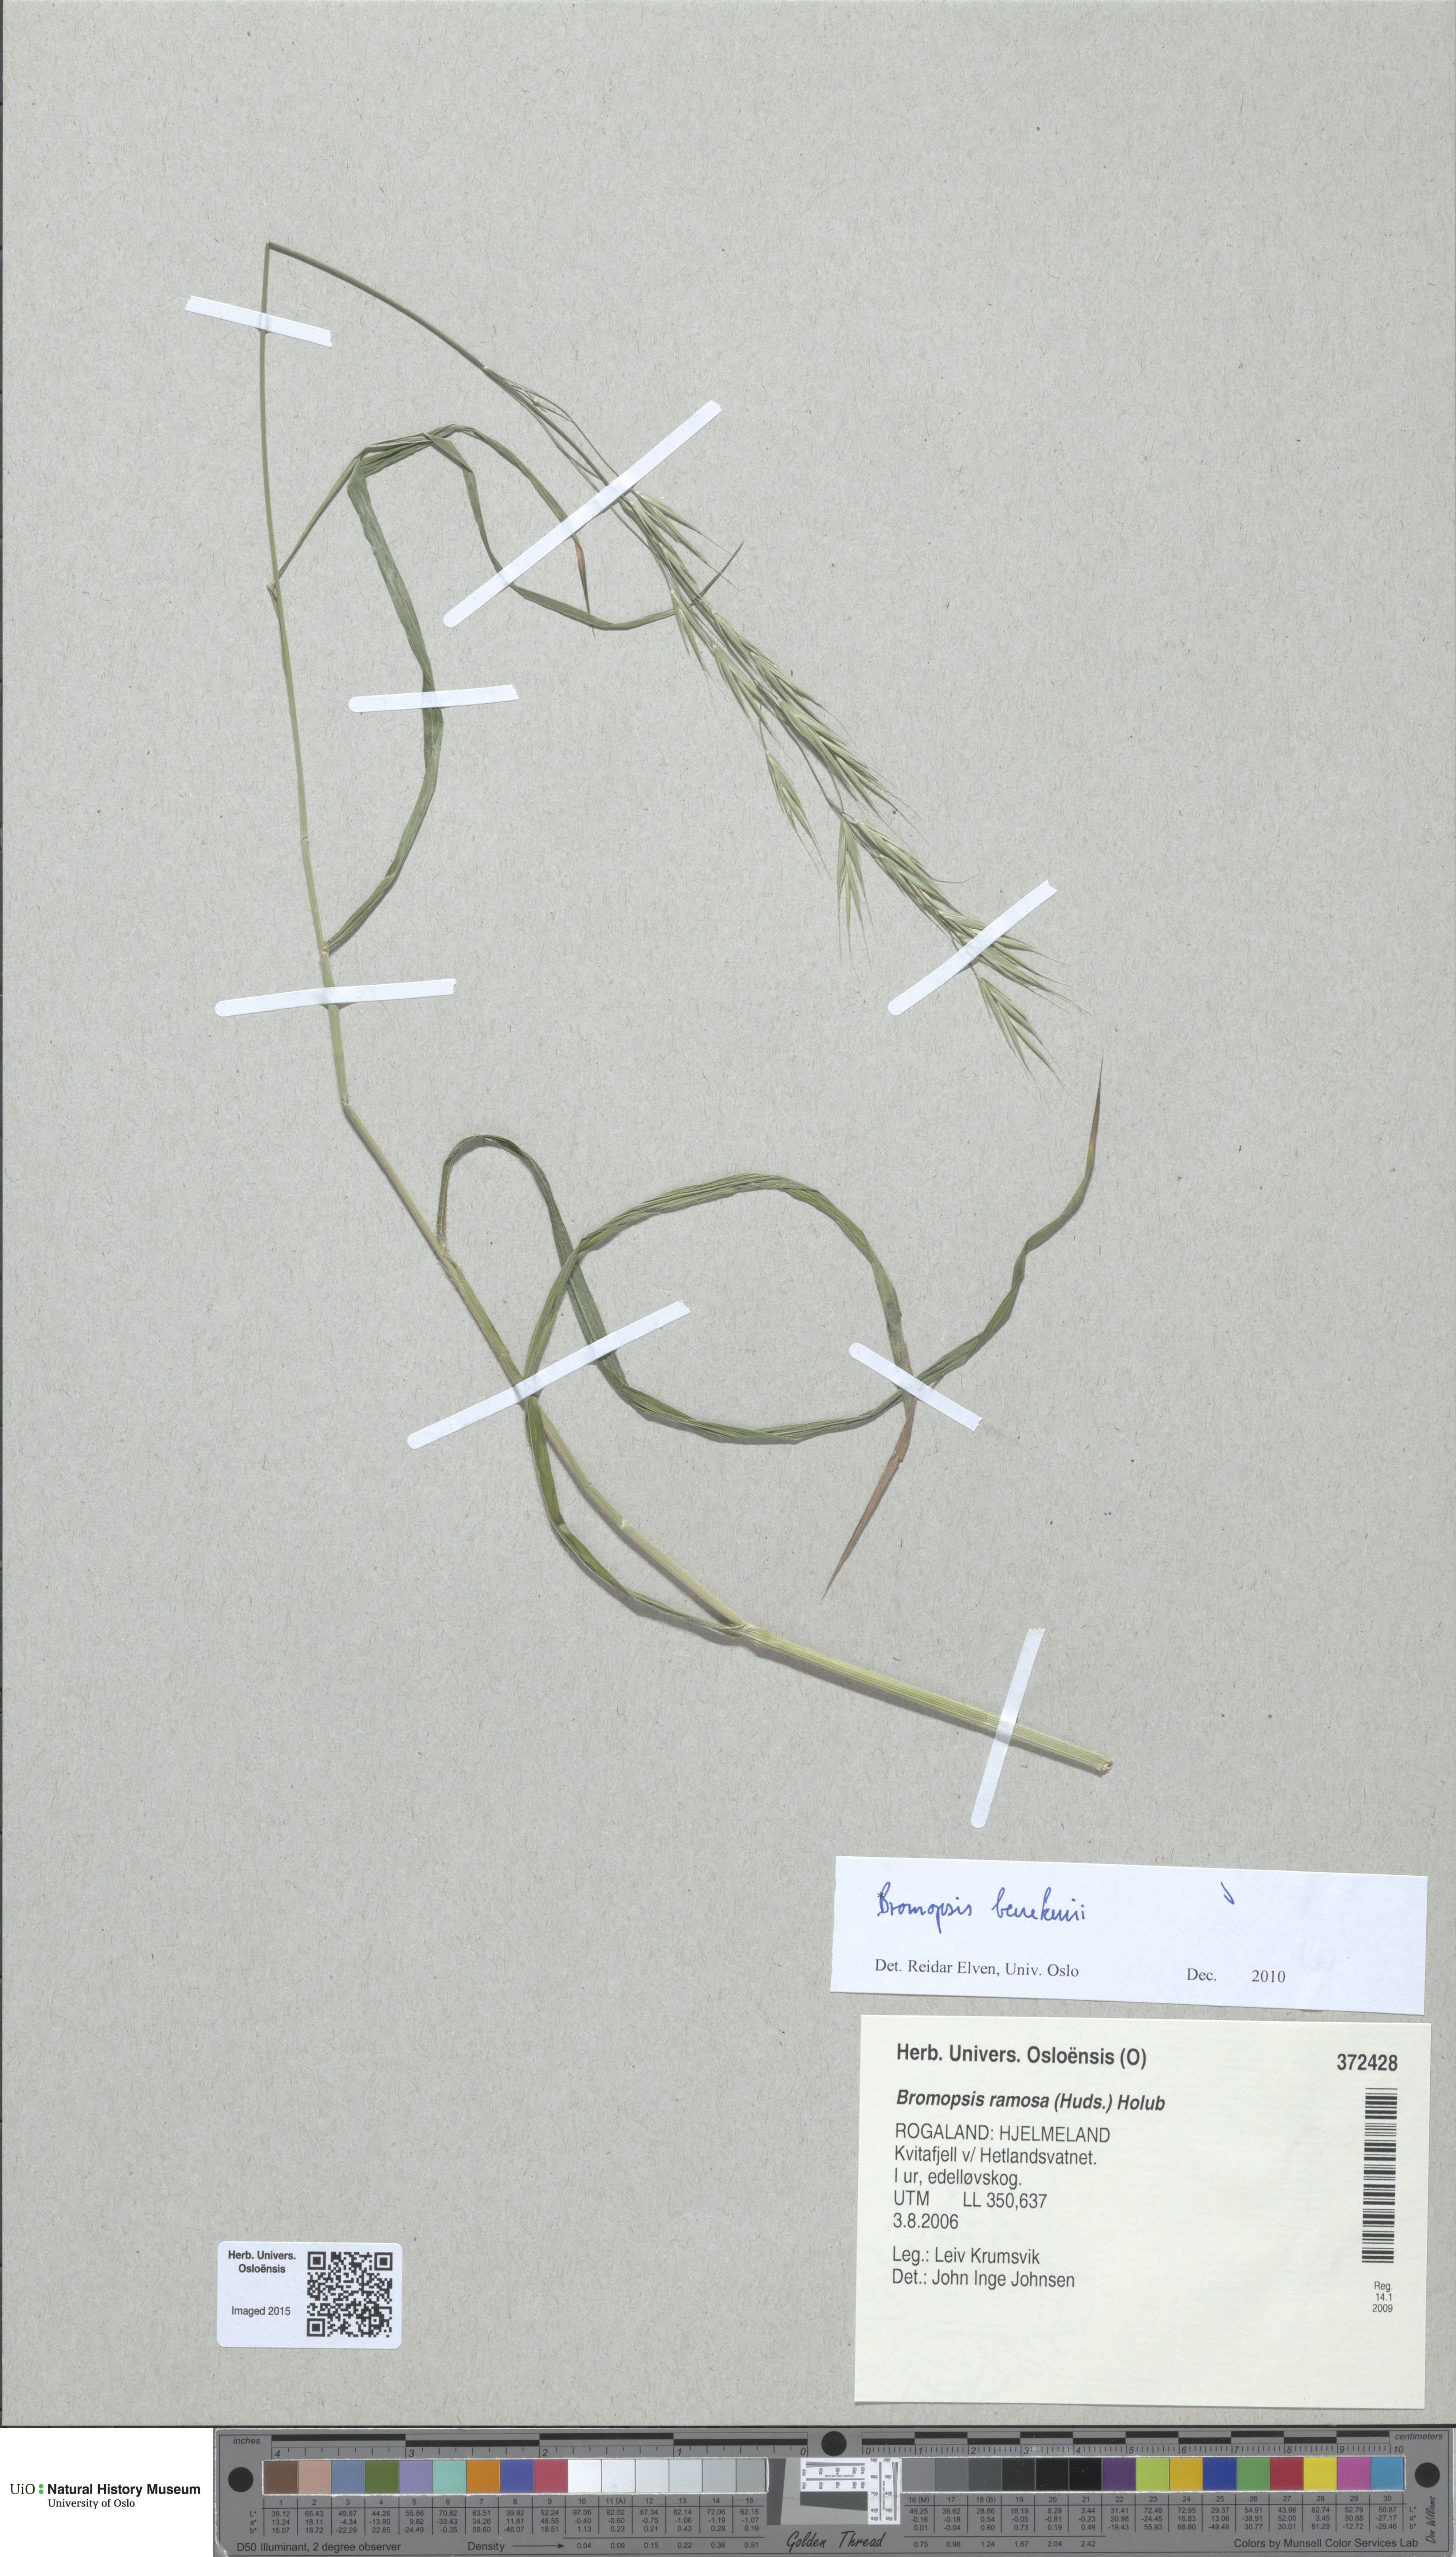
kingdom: Plantae
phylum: Tracheophyta
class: Liliopsida
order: Poales
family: Poaceae
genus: Bromus
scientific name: Bromus benekenii
